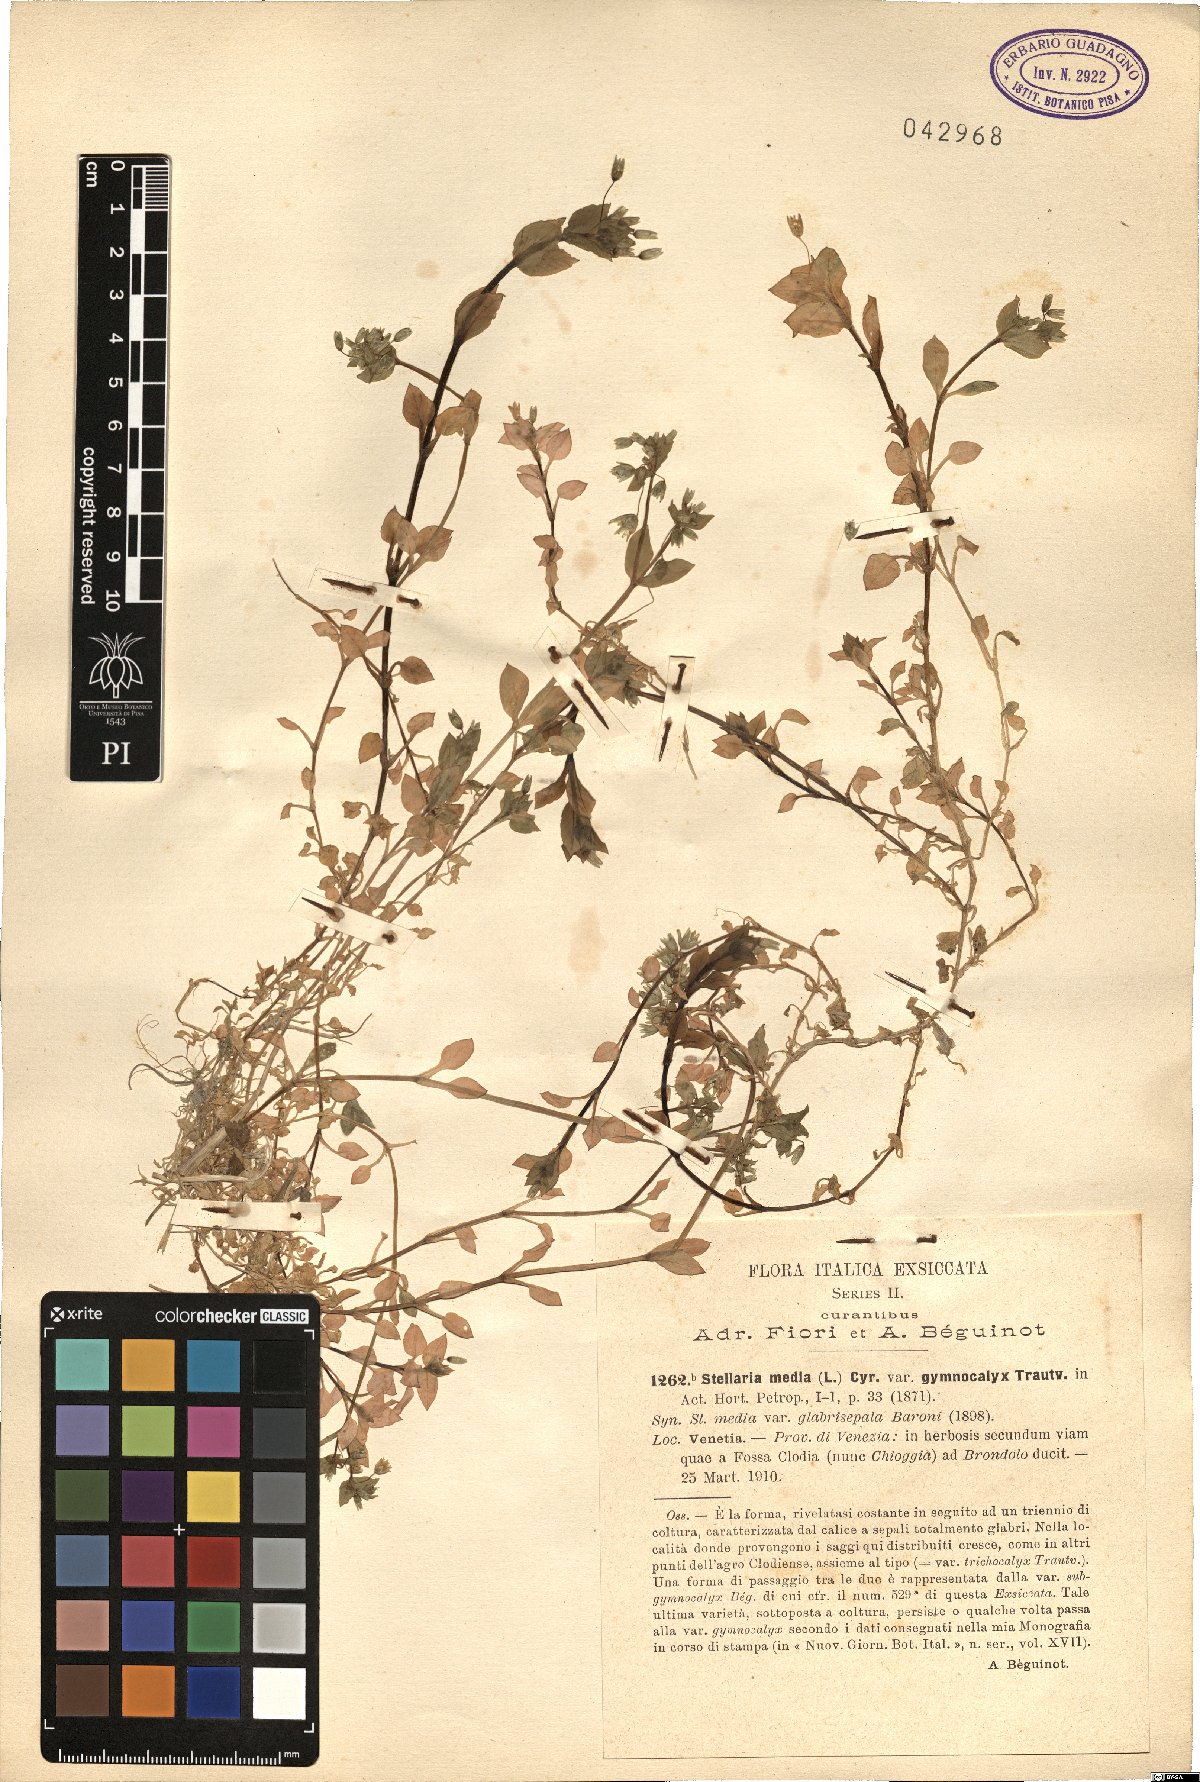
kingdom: Plantae
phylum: Tracheophyta
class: Magnoliopsida
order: Caryophyllales
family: Caryophyllaceae
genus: Stellaria
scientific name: Stellaria media
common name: Common chickweed
